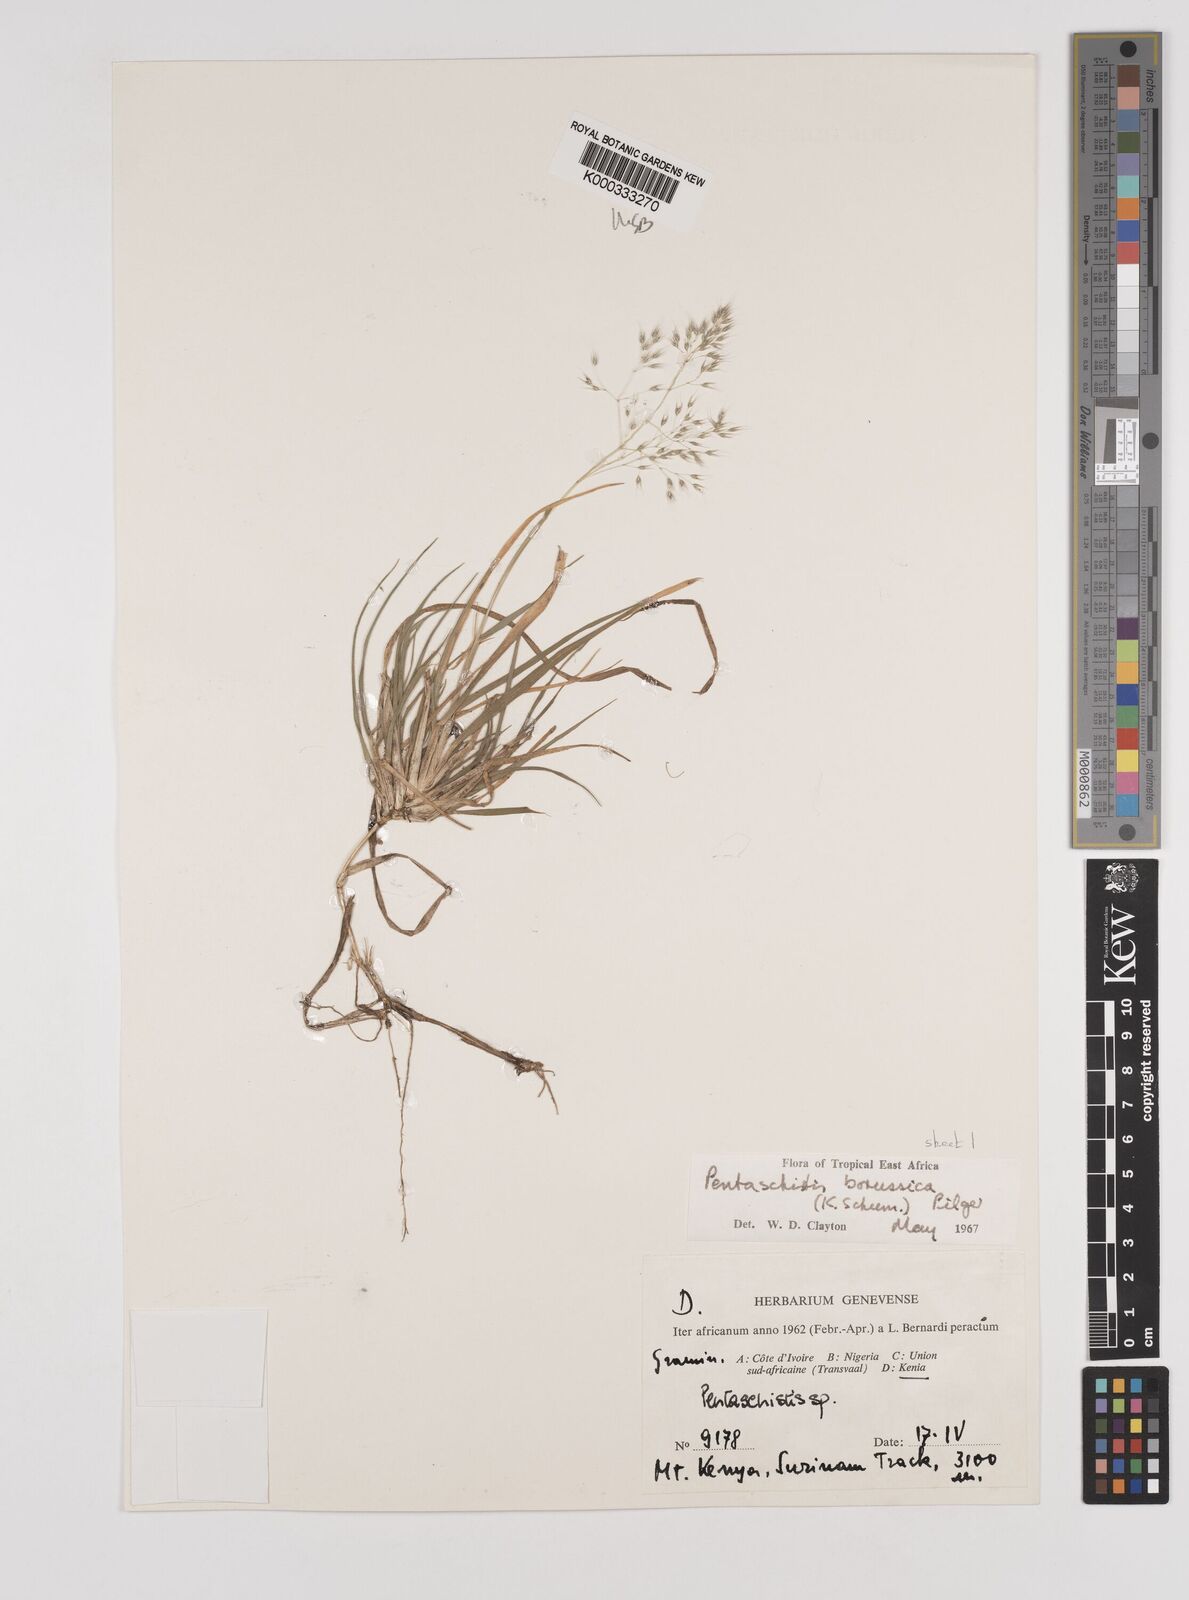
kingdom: Plantae
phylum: Tracheophyta
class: Liliopsida
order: Poales
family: Poaceae
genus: Pentameris
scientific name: Pentameris borussica
